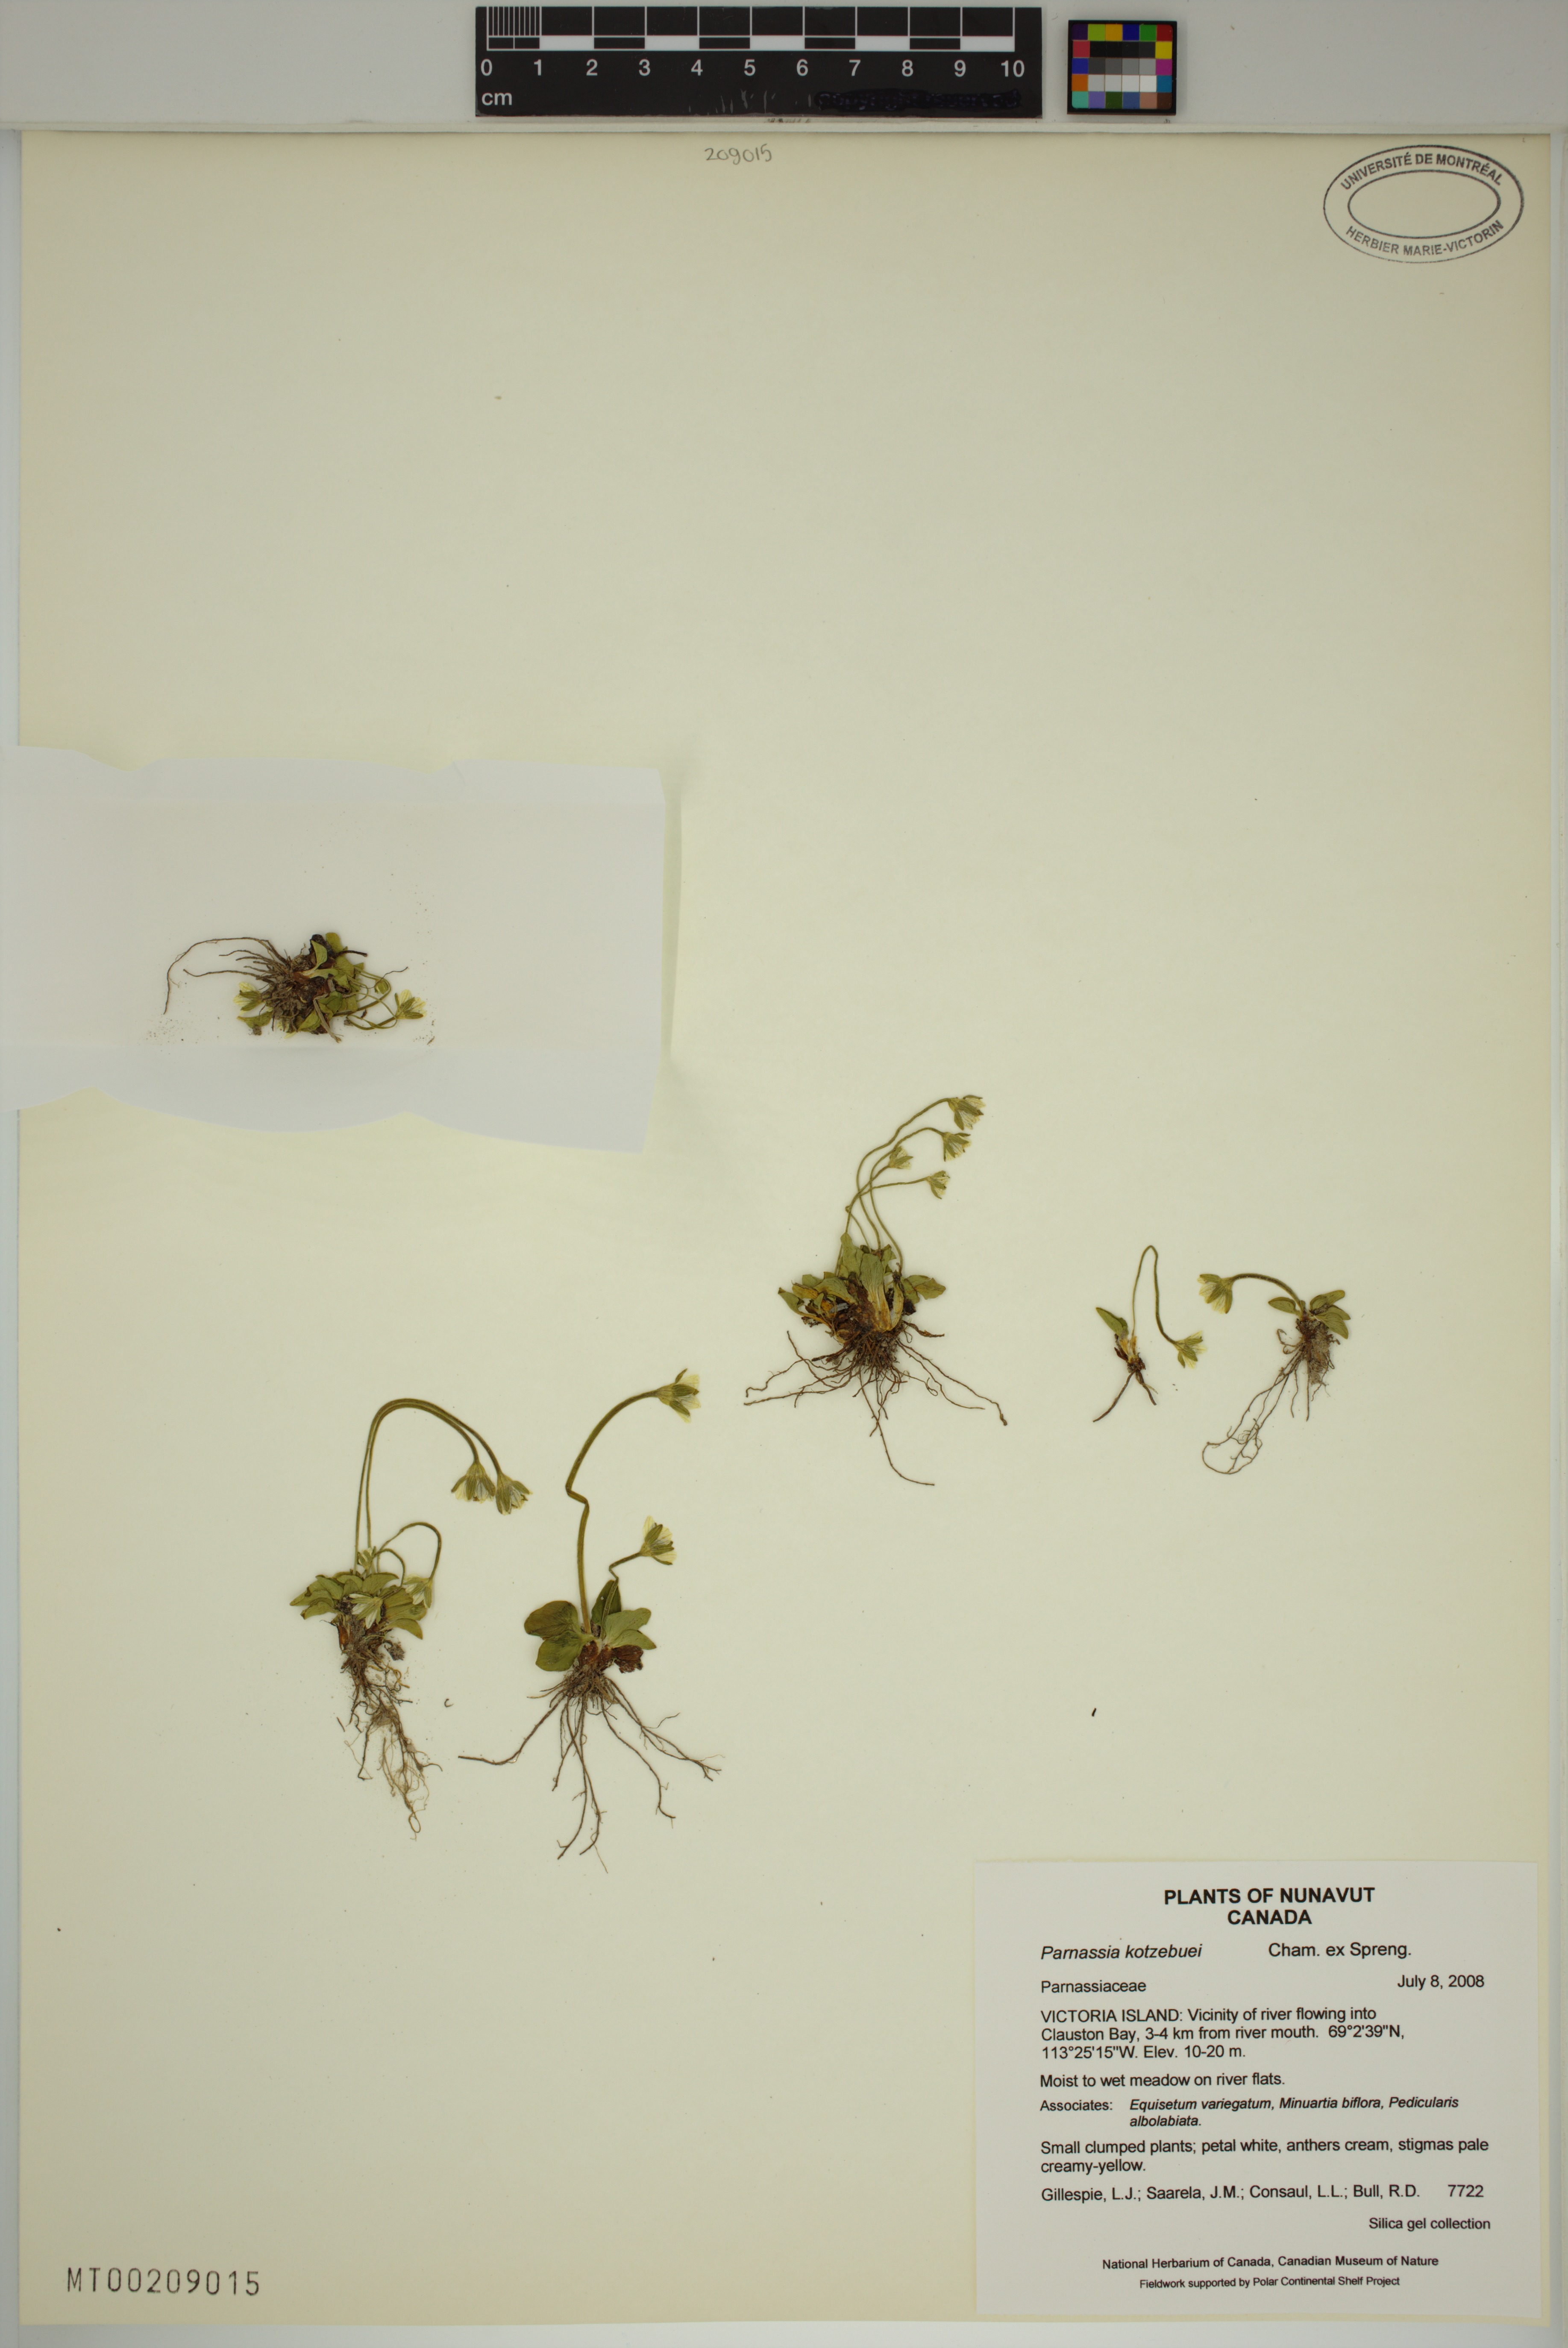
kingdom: Plantae
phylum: Tracheophyta
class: Magnoliopsida
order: Celastrales
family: Parnassiaceae
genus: Parnassia
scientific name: Parnassia kotzebuei
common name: Kotzebue's grass-of-parnassus
